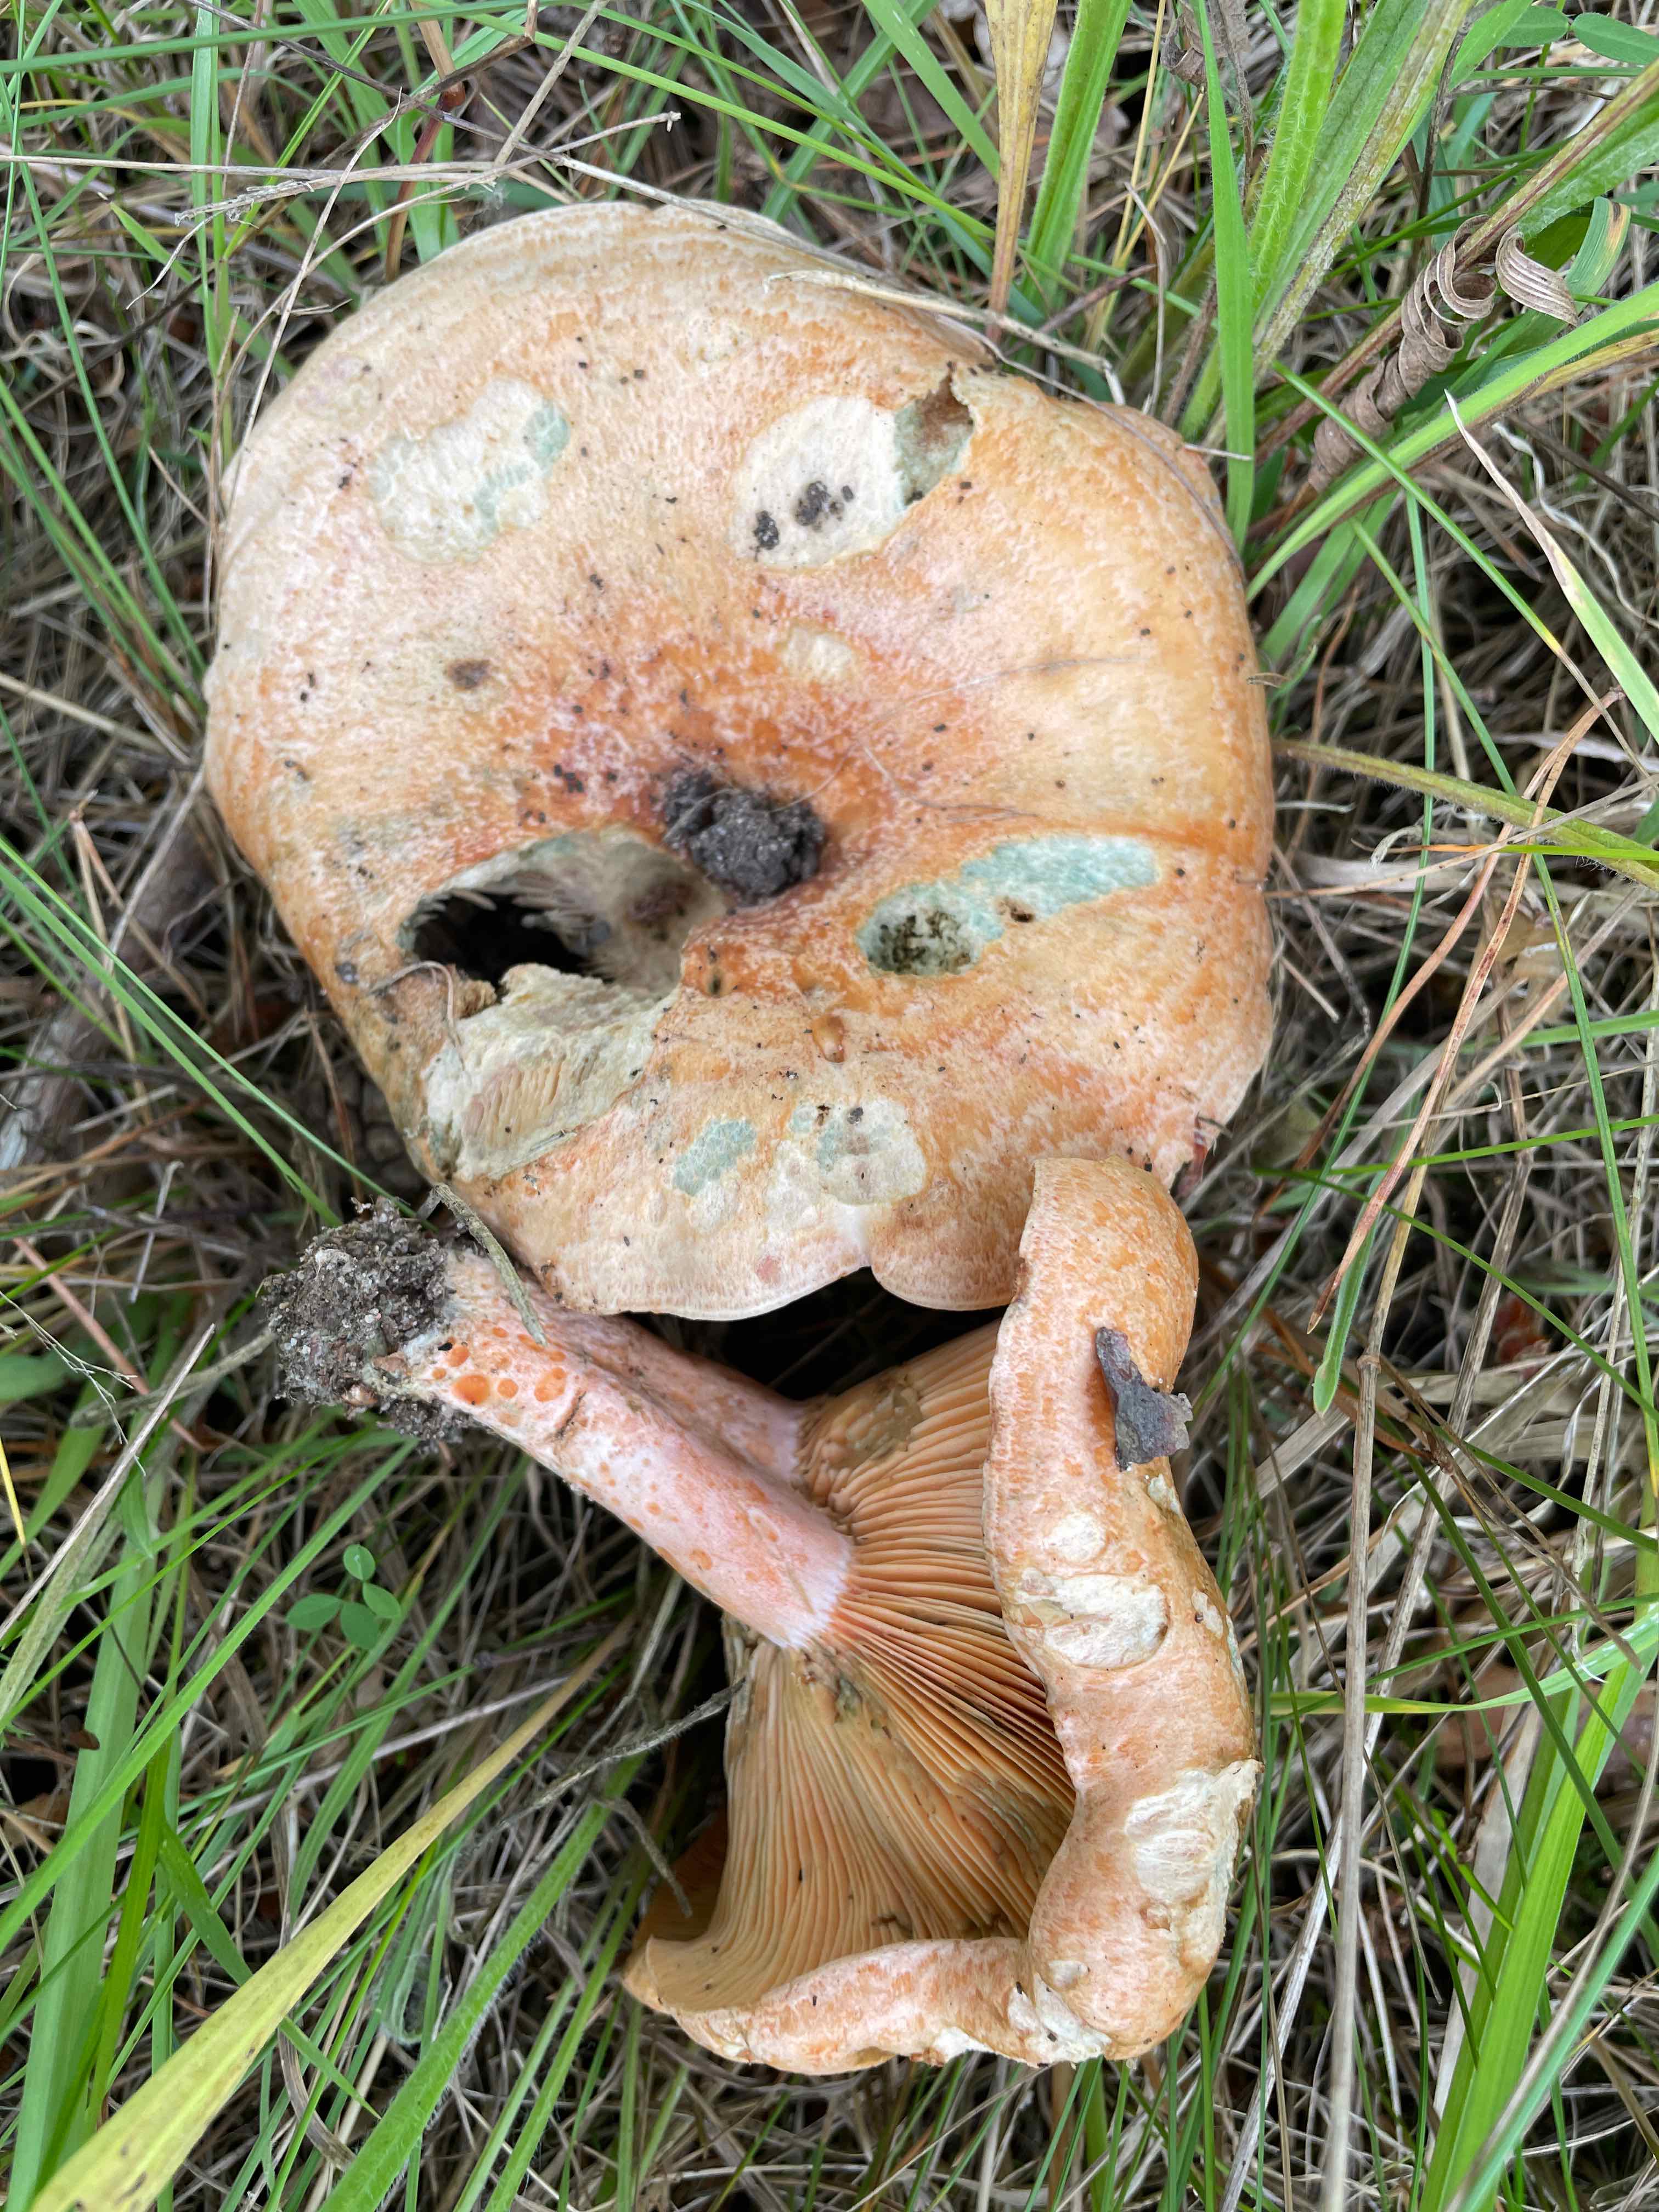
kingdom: Fungi
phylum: Basidiomycota
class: Agaricomycetes
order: Russulales
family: Russulaceae
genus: Lactarius
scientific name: Lactarius deliciosus
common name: velsmagende mælkehat
